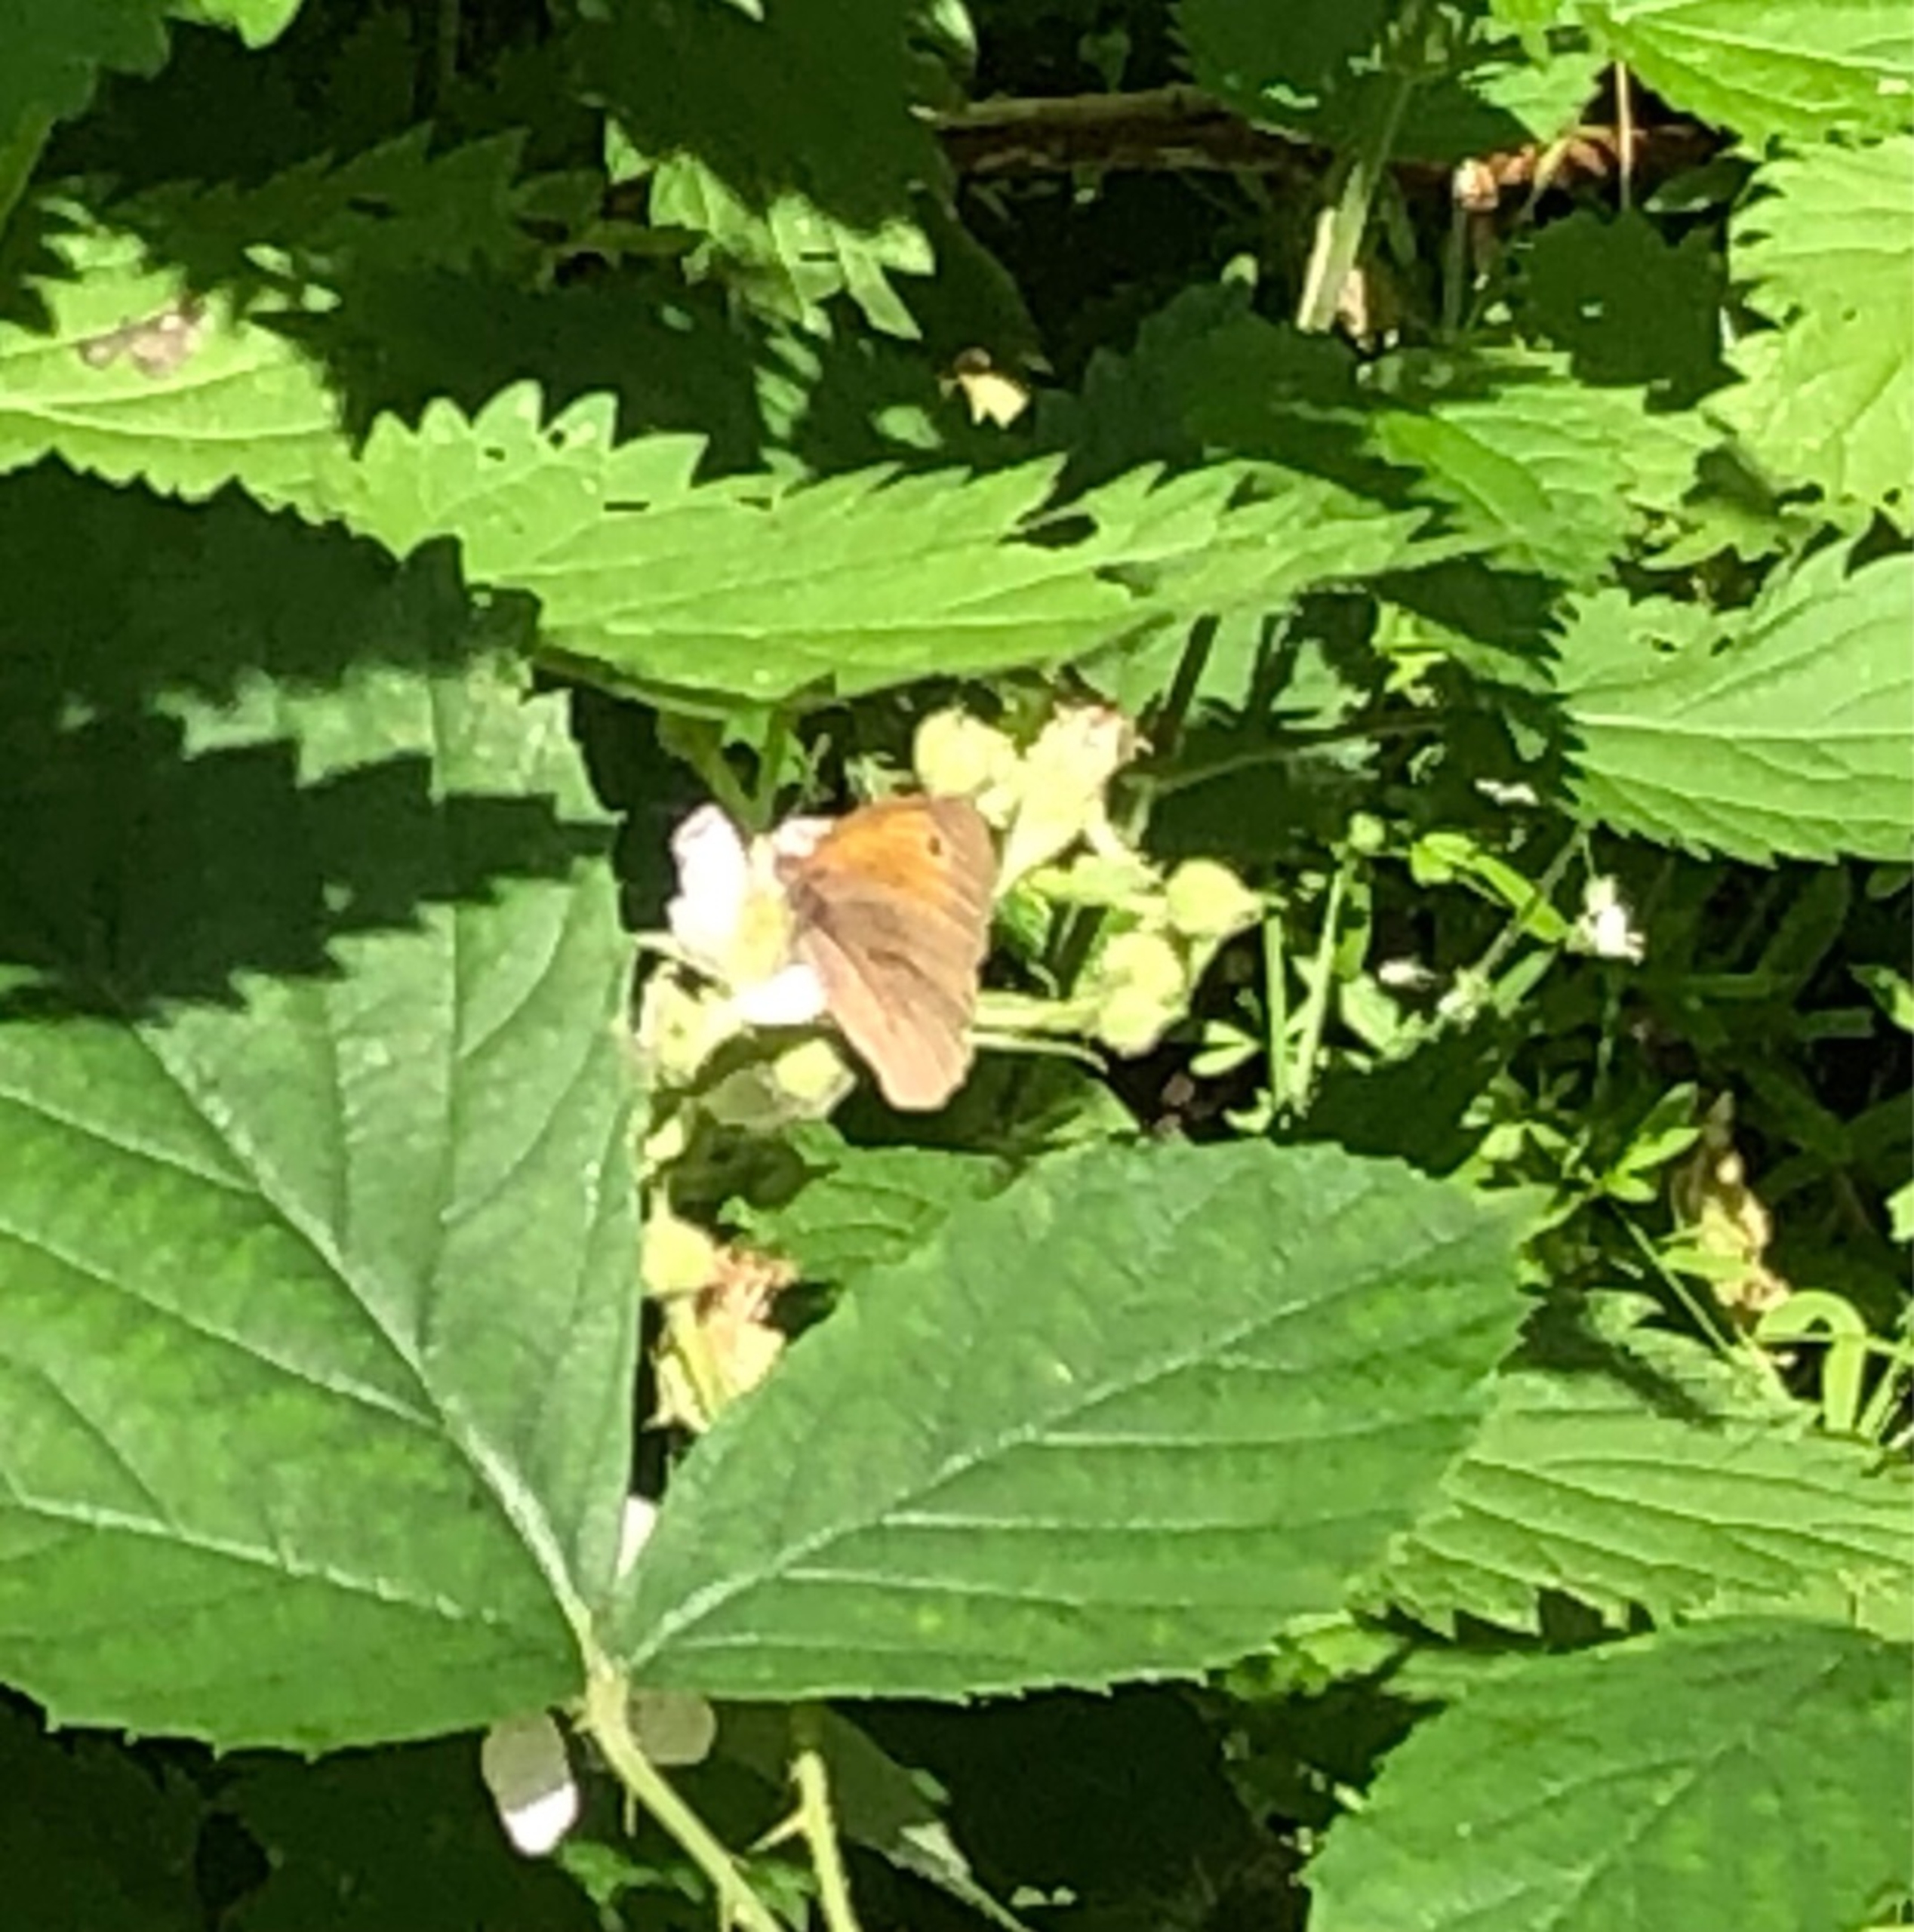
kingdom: Animalia
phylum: Arthropoda
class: Insecta
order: Lepidoptera
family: Nymphalidae
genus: Maniola
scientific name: Maniola jurtina
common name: Græsrandøje
